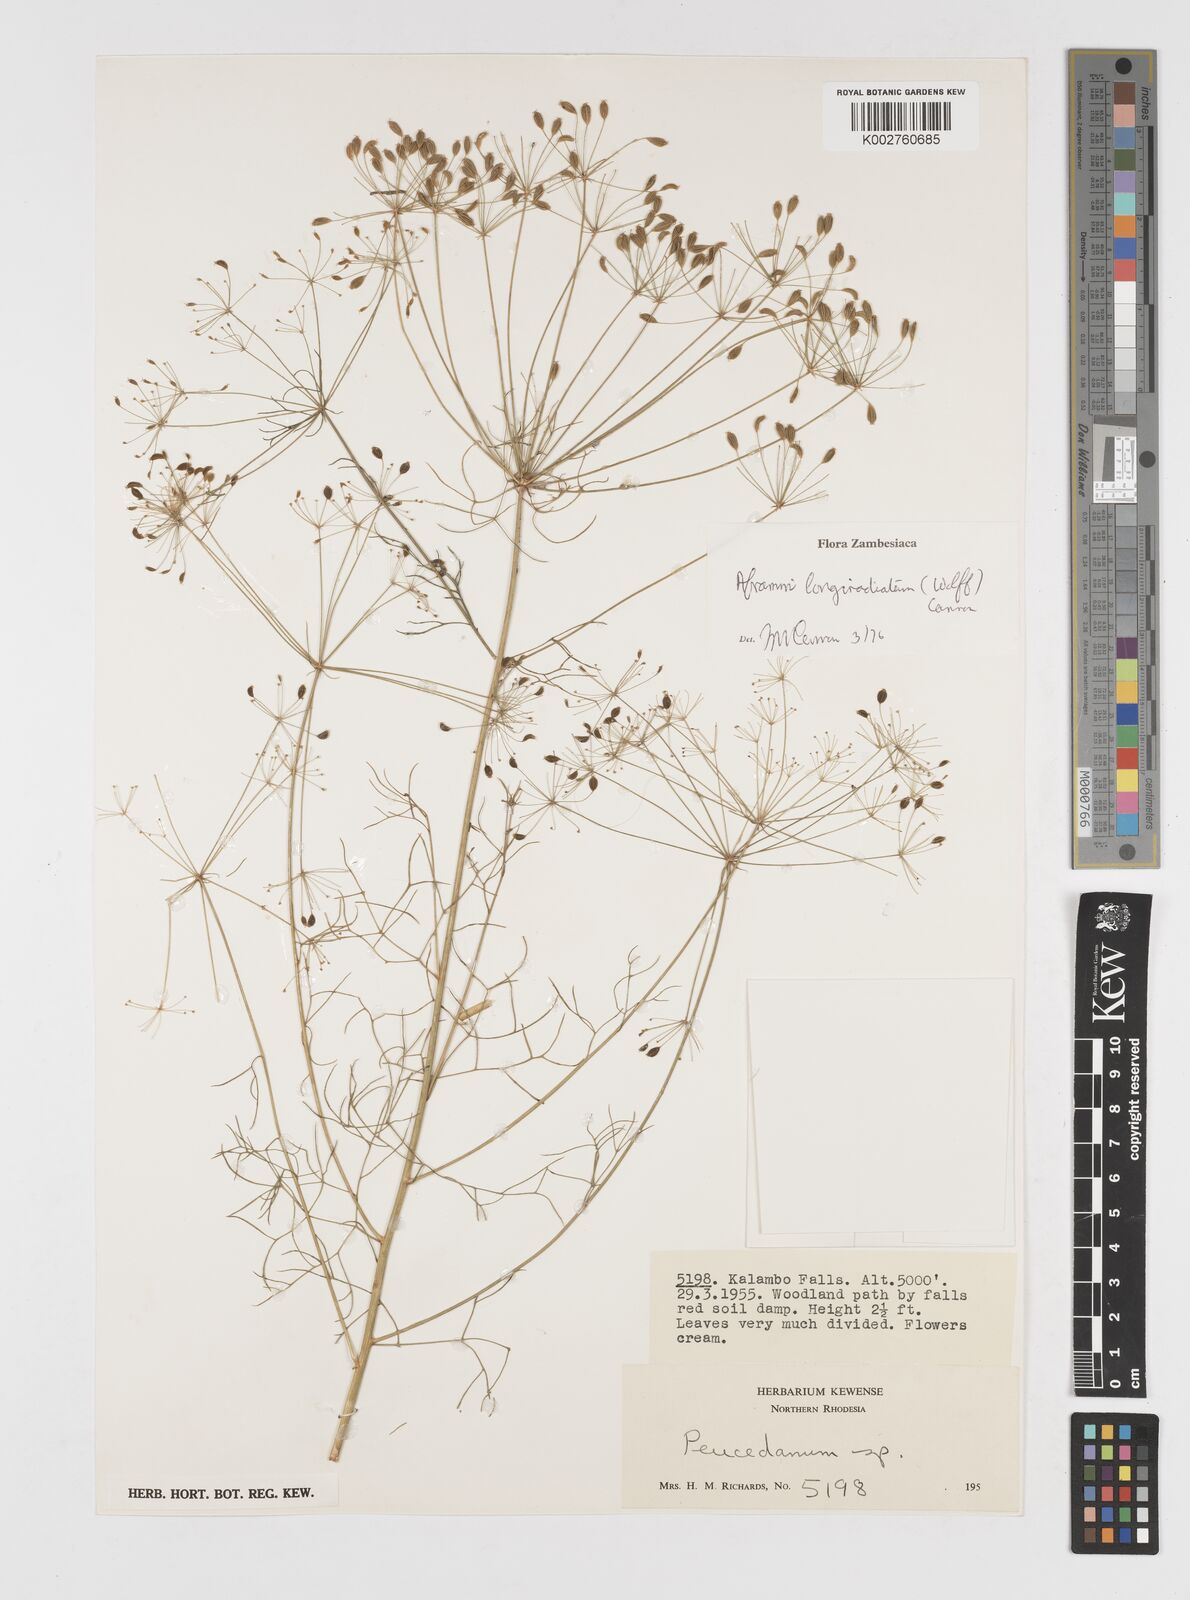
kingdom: Plantae
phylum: Tracheophyta
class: Magnoliopsida
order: Apiales
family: Apiaceae
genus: Physotrichia
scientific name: Physotrichia longiradiatum
